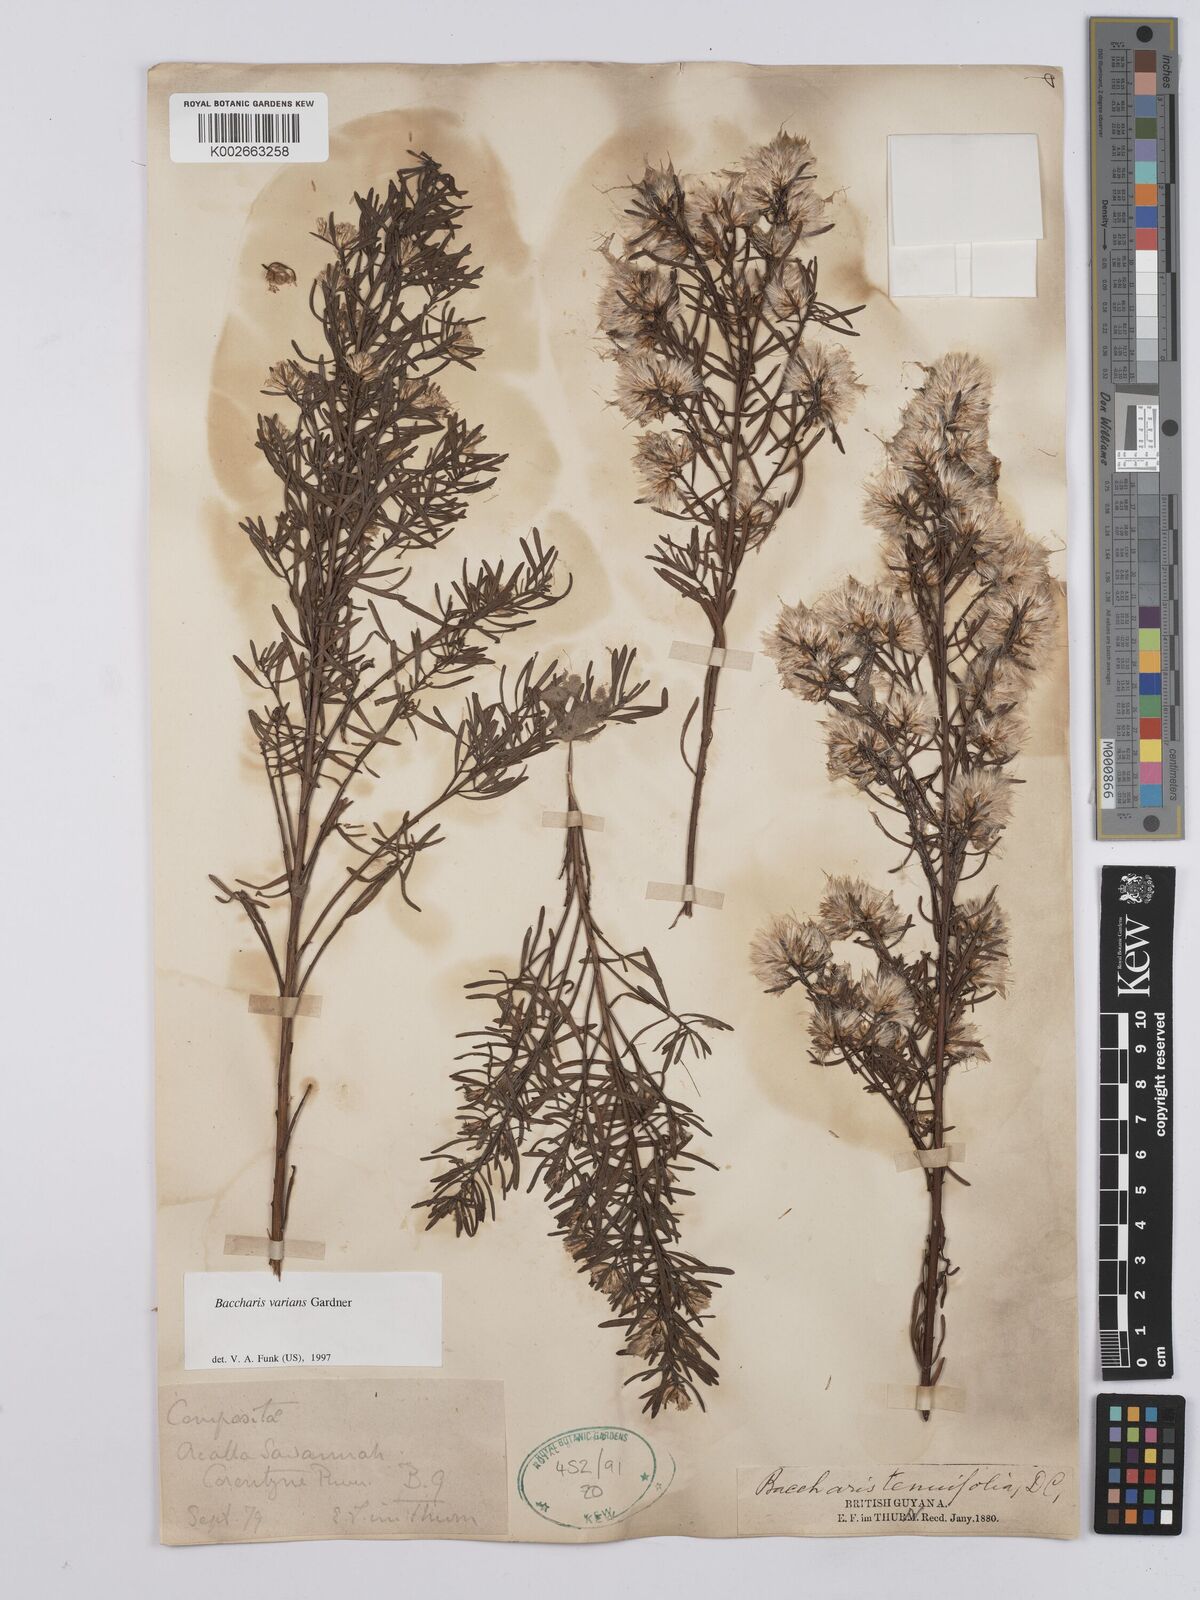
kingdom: Plantae
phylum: Tracheophyta
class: Magnoliopsida
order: Asterales
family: Asteraceae
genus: Baccharis
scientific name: Baccharis varians
